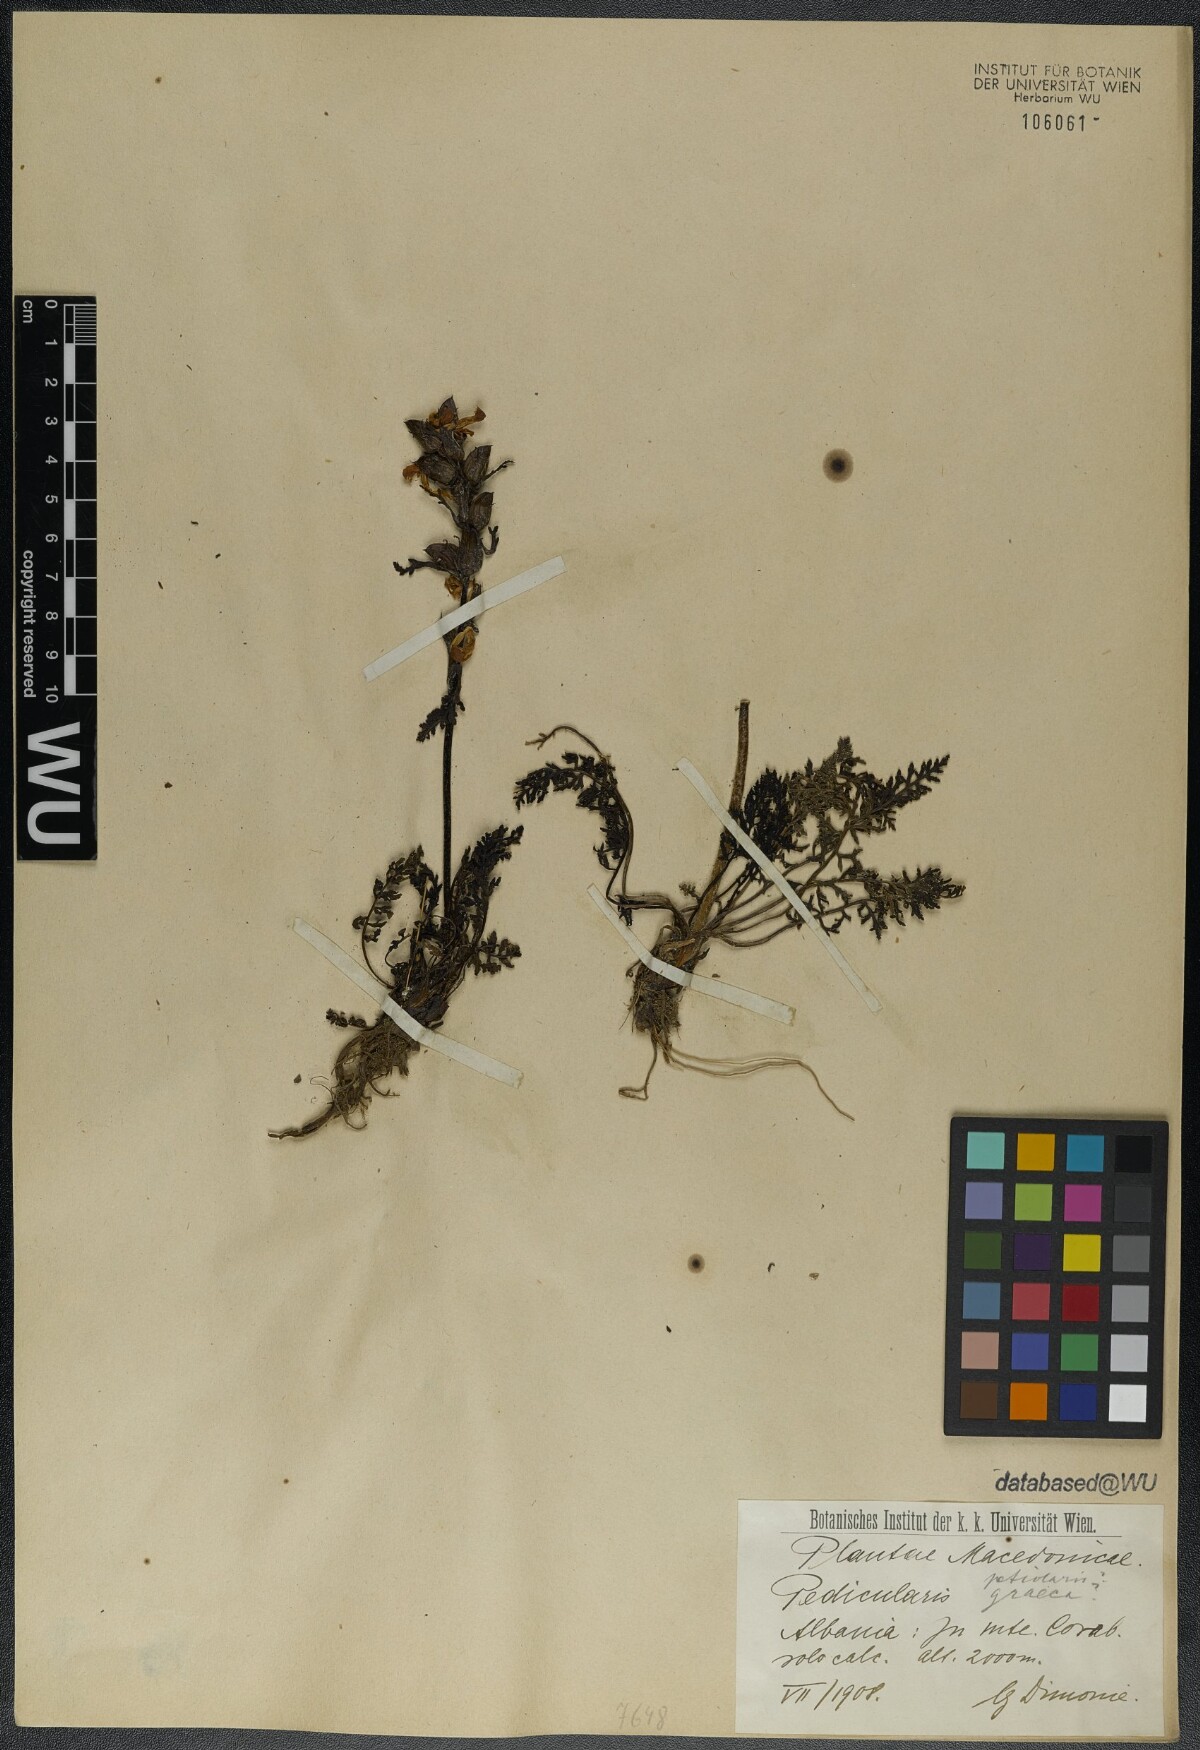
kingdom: Plantae
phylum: Tracheophyta
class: Magnoliopsida
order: Lamiales
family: Orobanchaceae
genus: Pedicularis
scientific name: Pedicularis petiolaris
